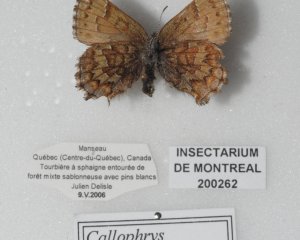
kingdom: Animalia
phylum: Arthropoda
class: Insecta
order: Lepidoptera
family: Lycaenidae
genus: Incisalia
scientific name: Incisalia niphon
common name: Eastern Pine Elfin
